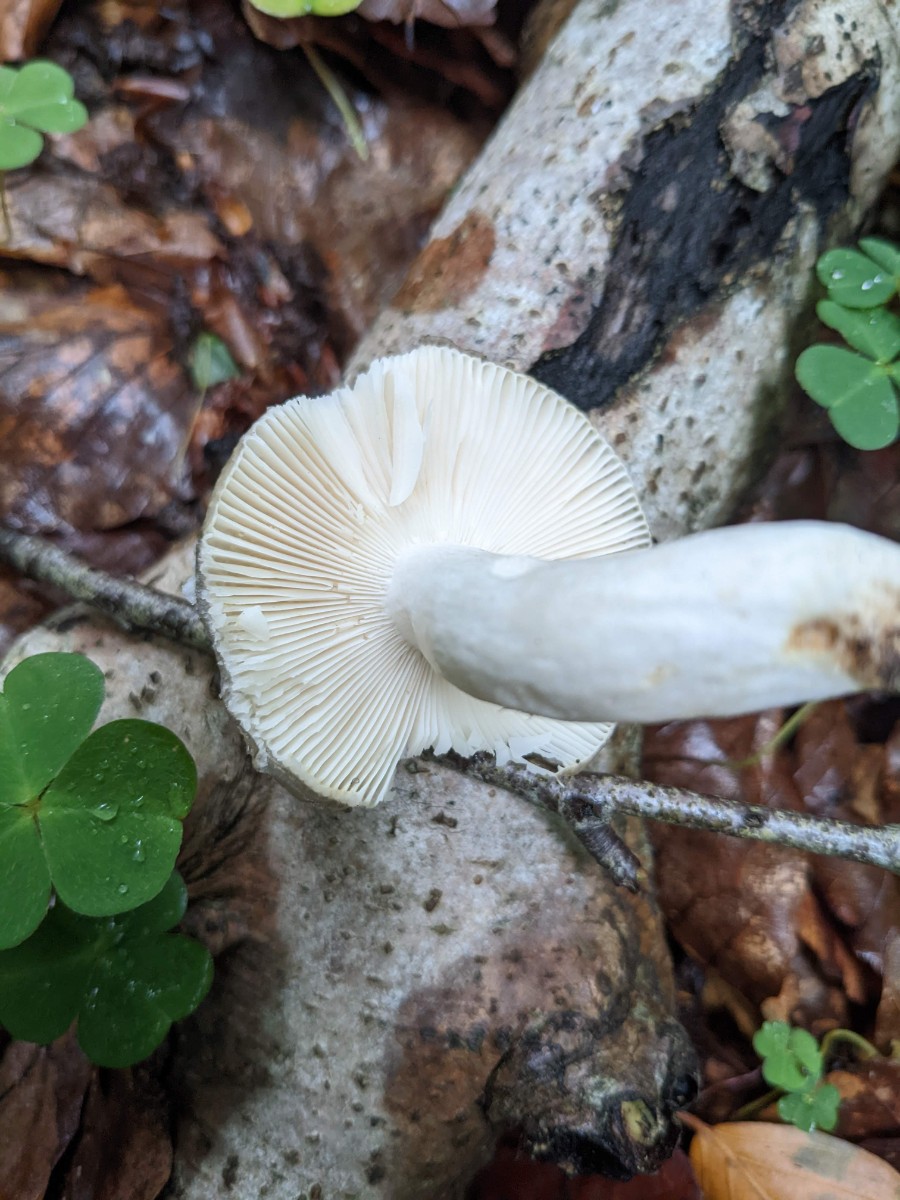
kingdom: Fungi
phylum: Basidiomycota
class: Agaricomycetes
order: Russulales
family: Russulaceae
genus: Russula
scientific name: Russula parazurea
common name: blågrå skørhat
